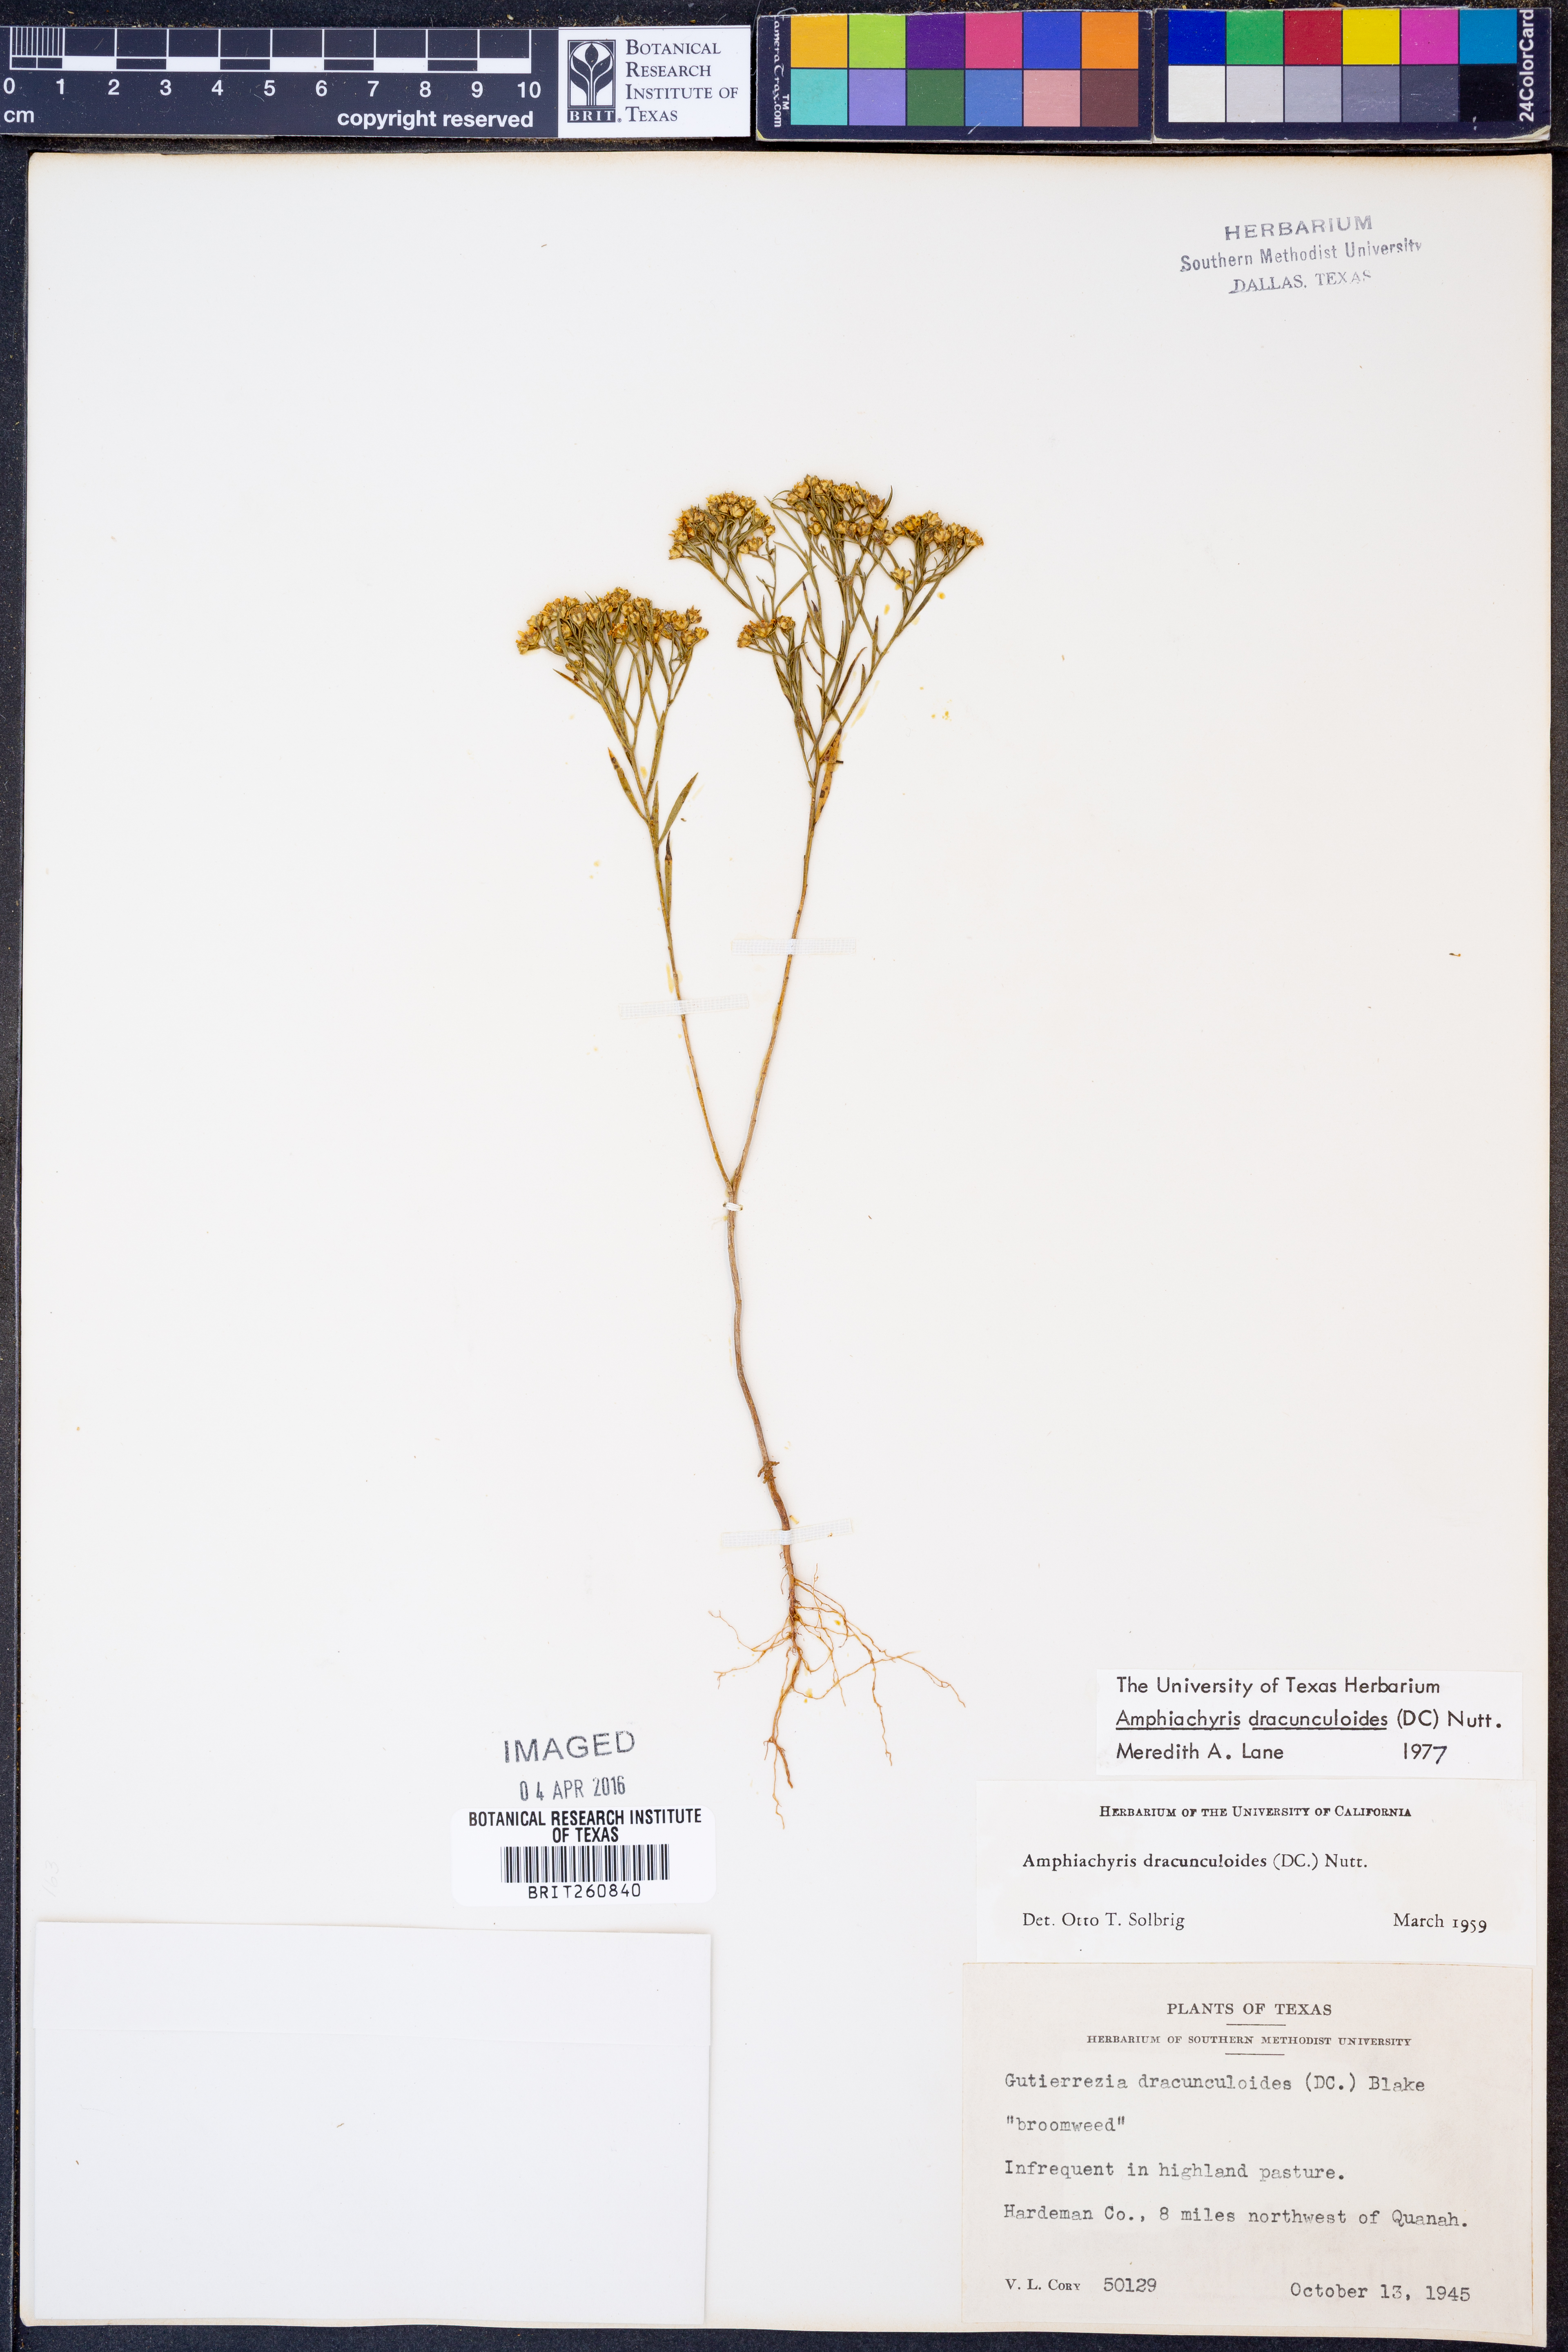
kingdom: Plantae
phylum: Tracheophyta
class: Magnoliopsida
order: Asterales
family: Asteraceae
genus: Amphiachyris
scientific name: Amphiachyris dracunculoides
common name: Broomweed
